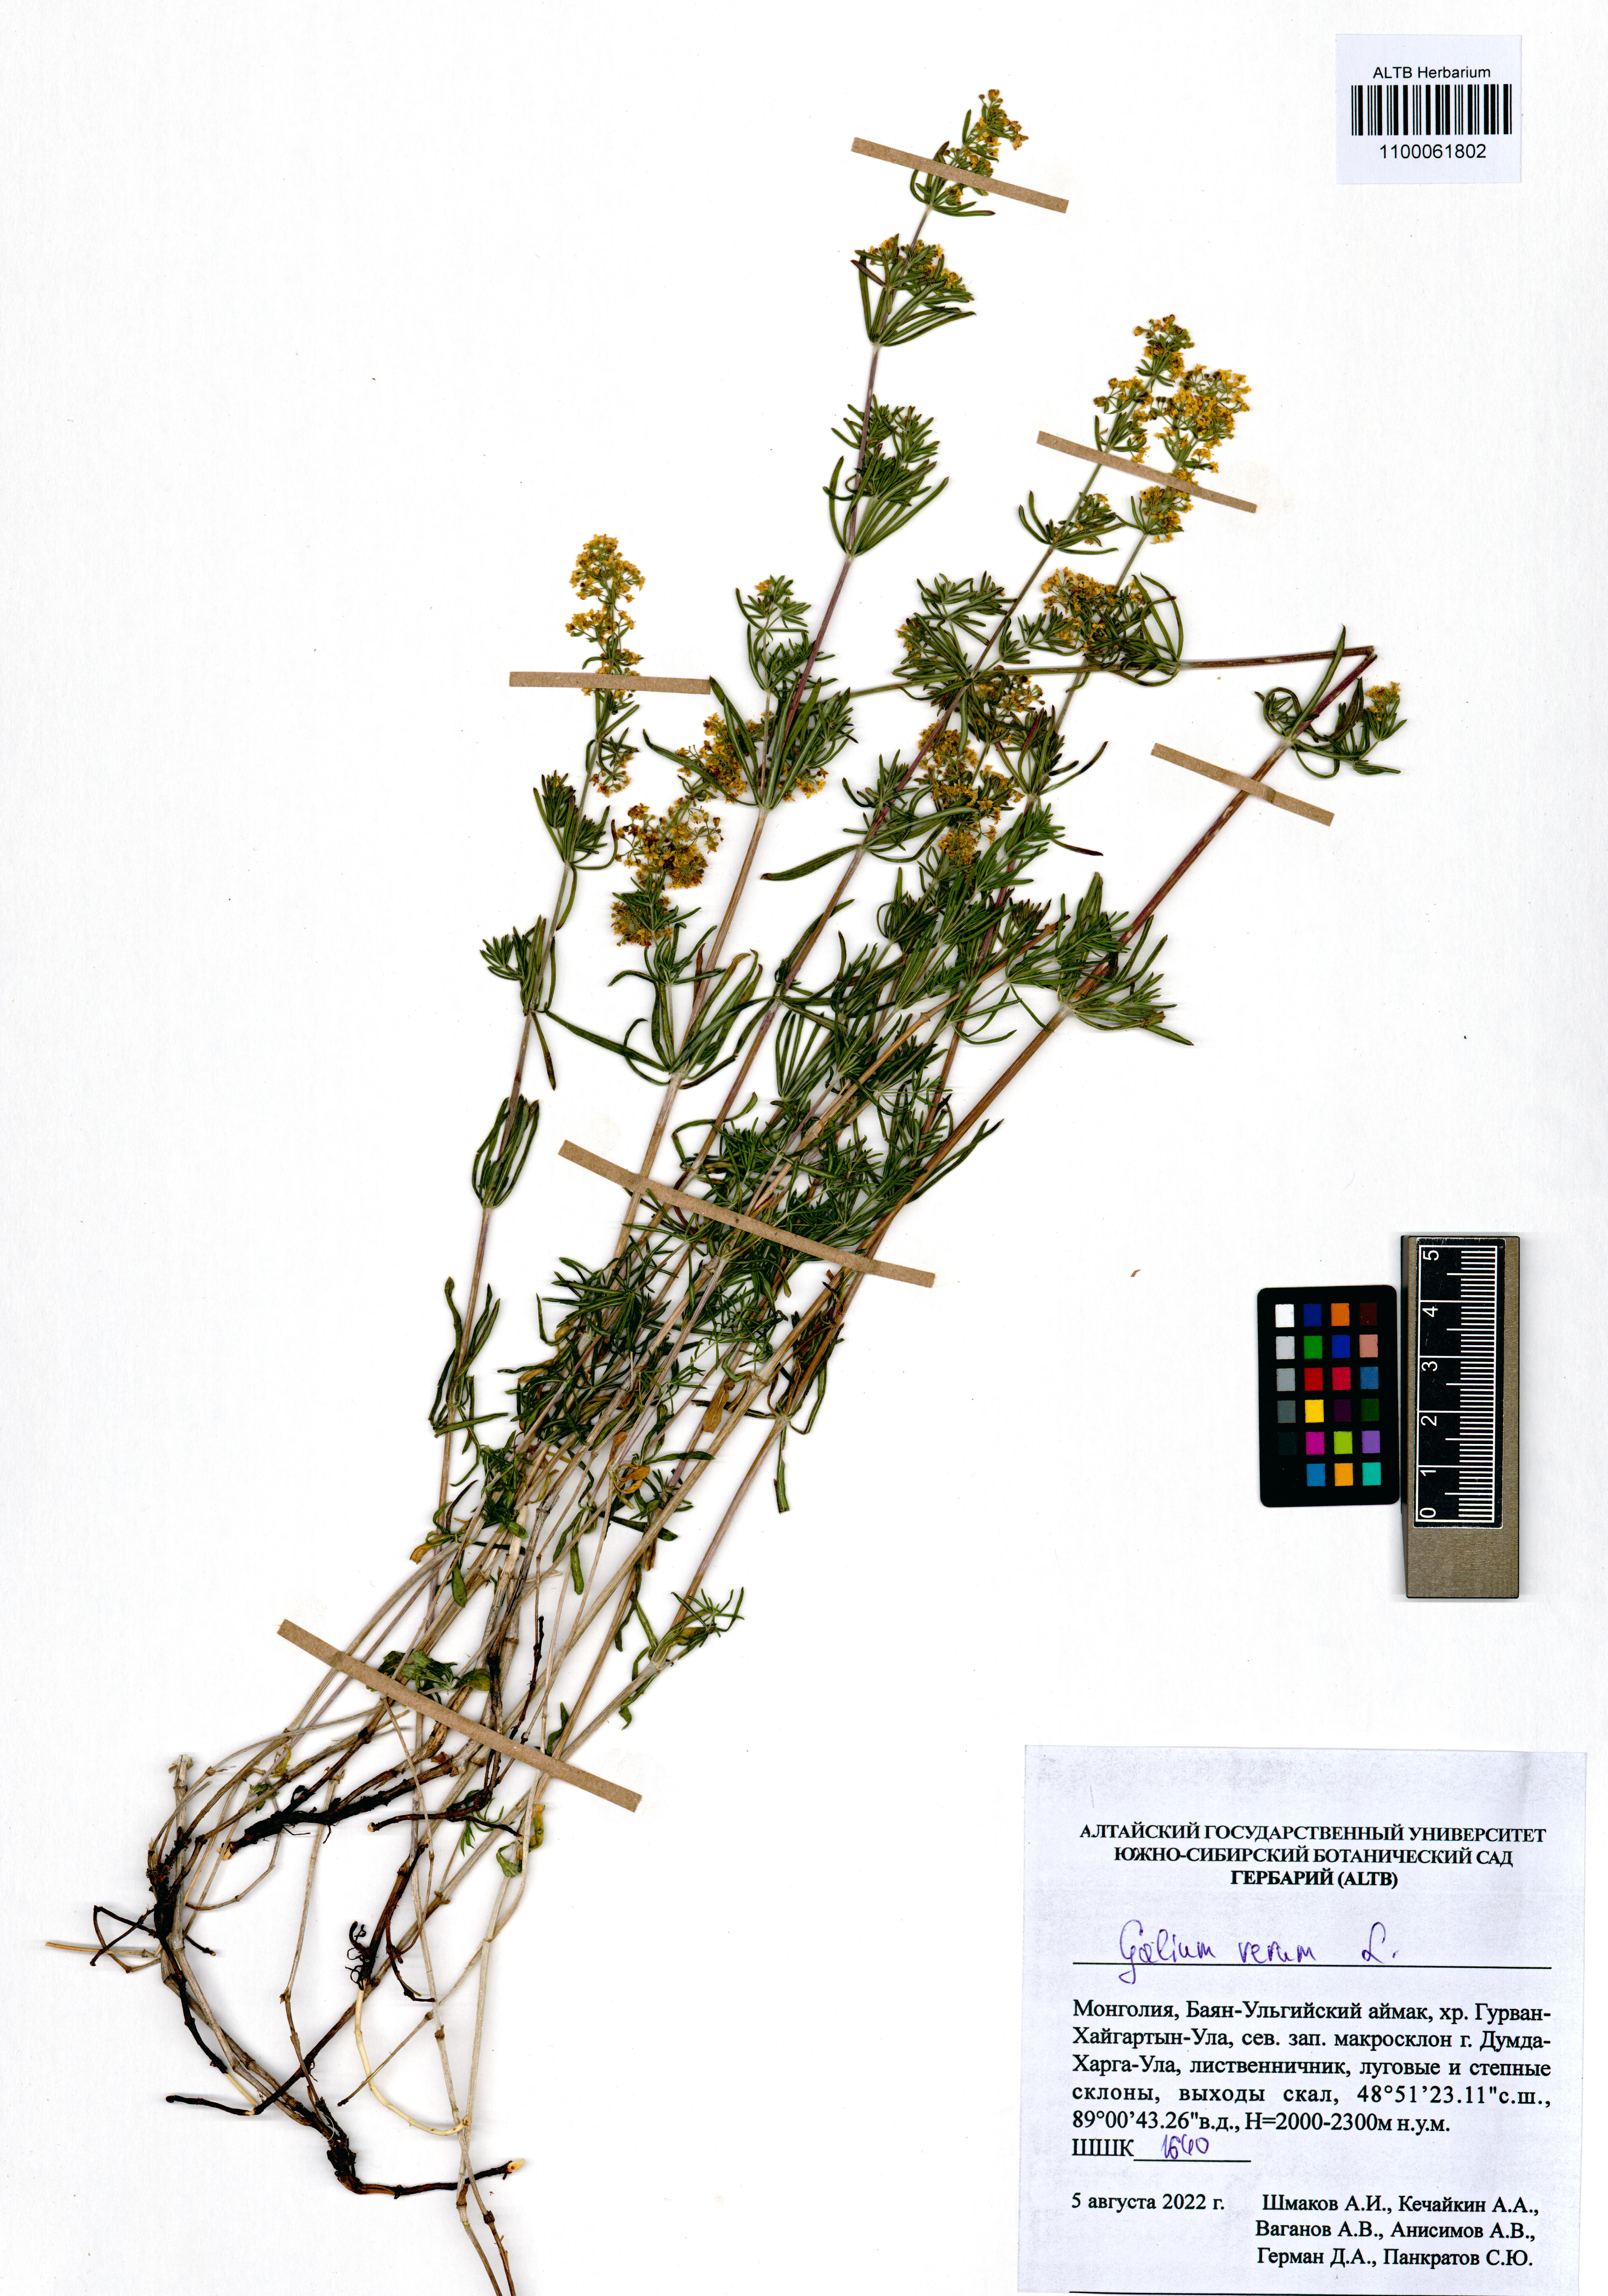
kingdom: Plantae
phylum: Tracheophyta
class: Magnoliopsida
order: Gentianales
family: Rubiaceae
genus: Galium
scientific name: Galium verum
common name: Lady's bedstraw
